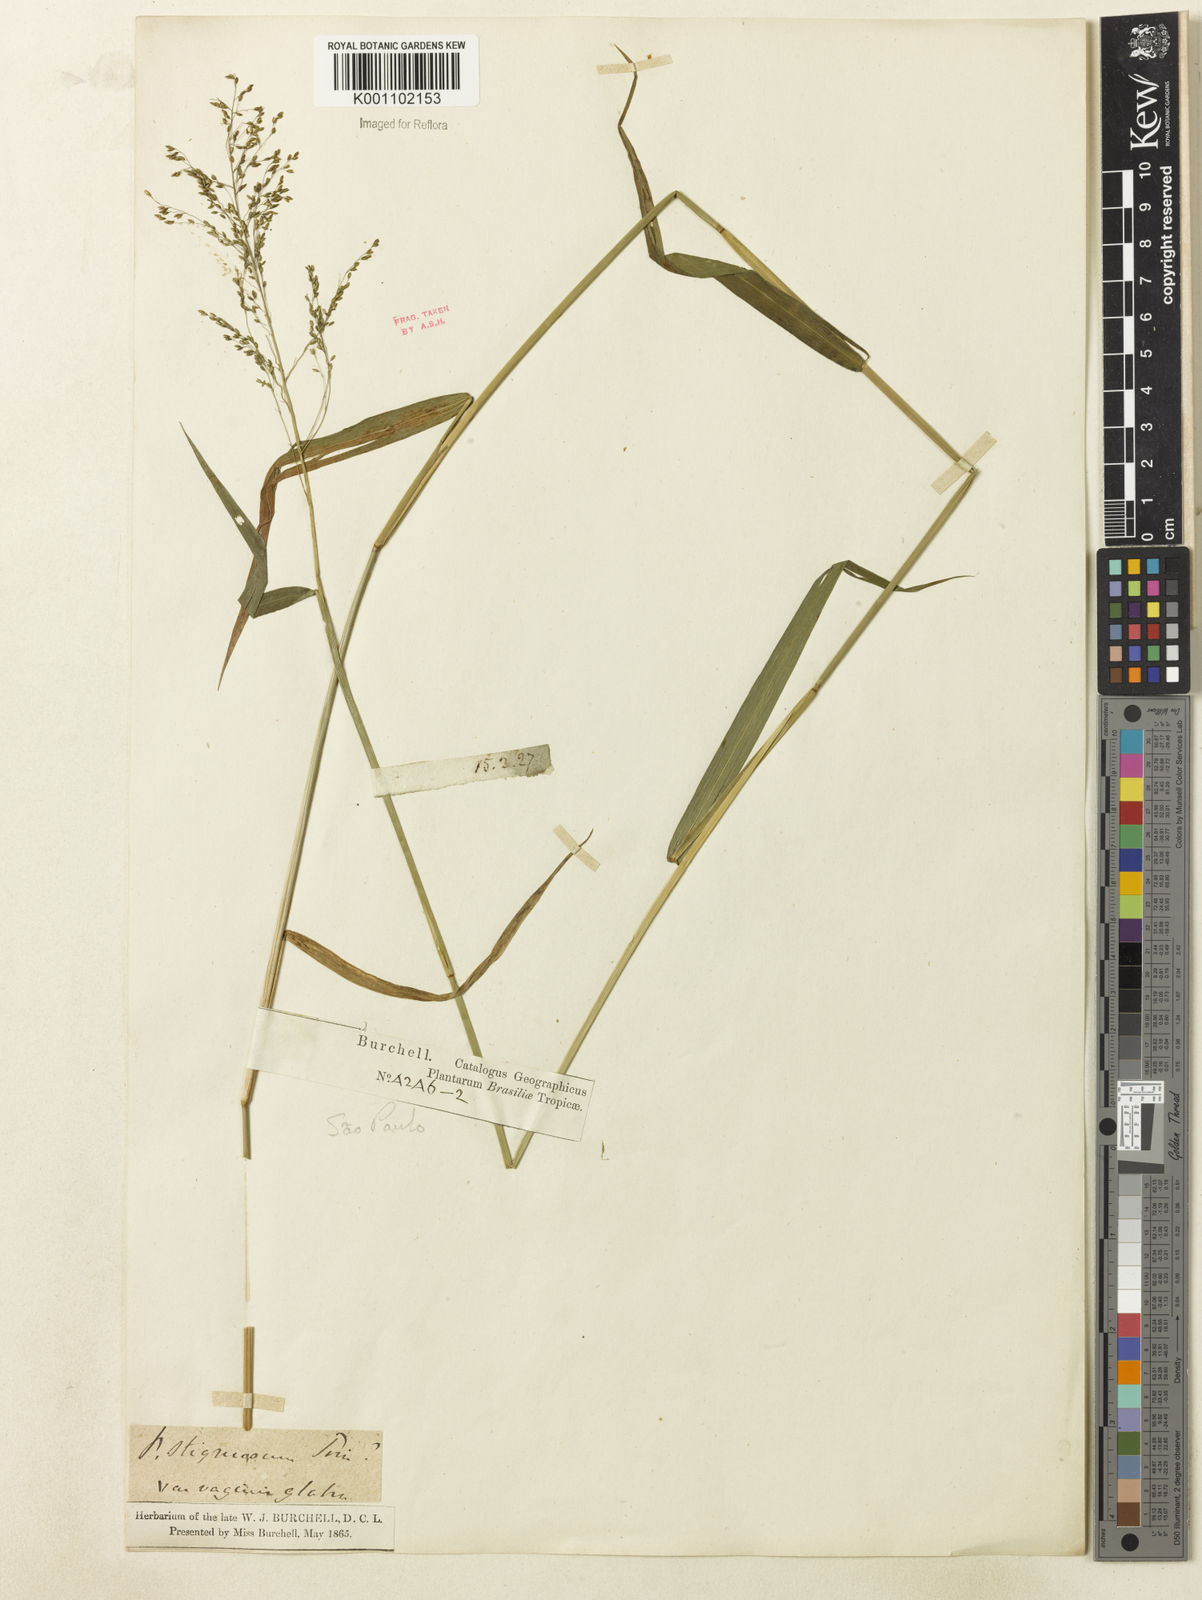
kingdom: Plantae
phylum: Tracheophyta
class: Liliopsida
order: Poales
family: Poaceae
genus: Dichanthelium
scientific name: Dichanthelium hebotes
